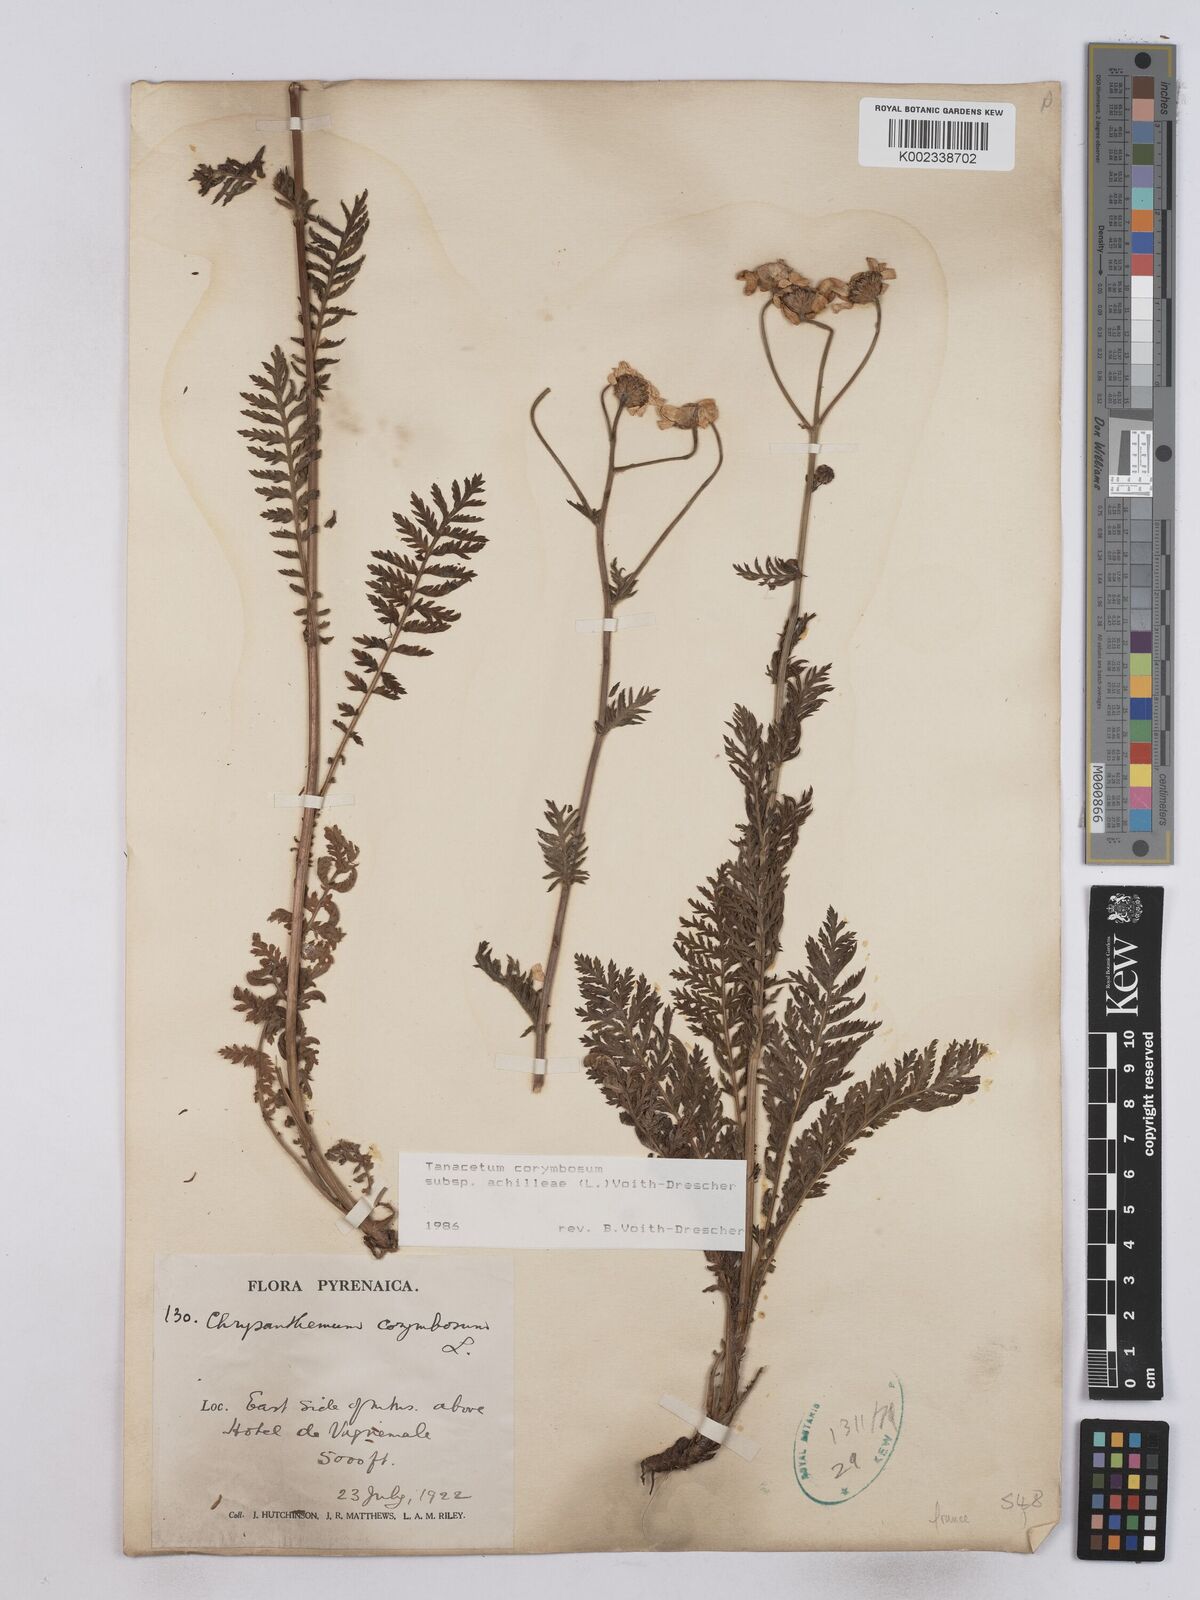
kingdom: Plantae
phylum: Tracheophyta
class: Magnoliopsida
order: Asterales
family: Asteraceae
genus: Tanacetum
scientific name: Tanacetum corymbosum
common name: Scentless feverfew
